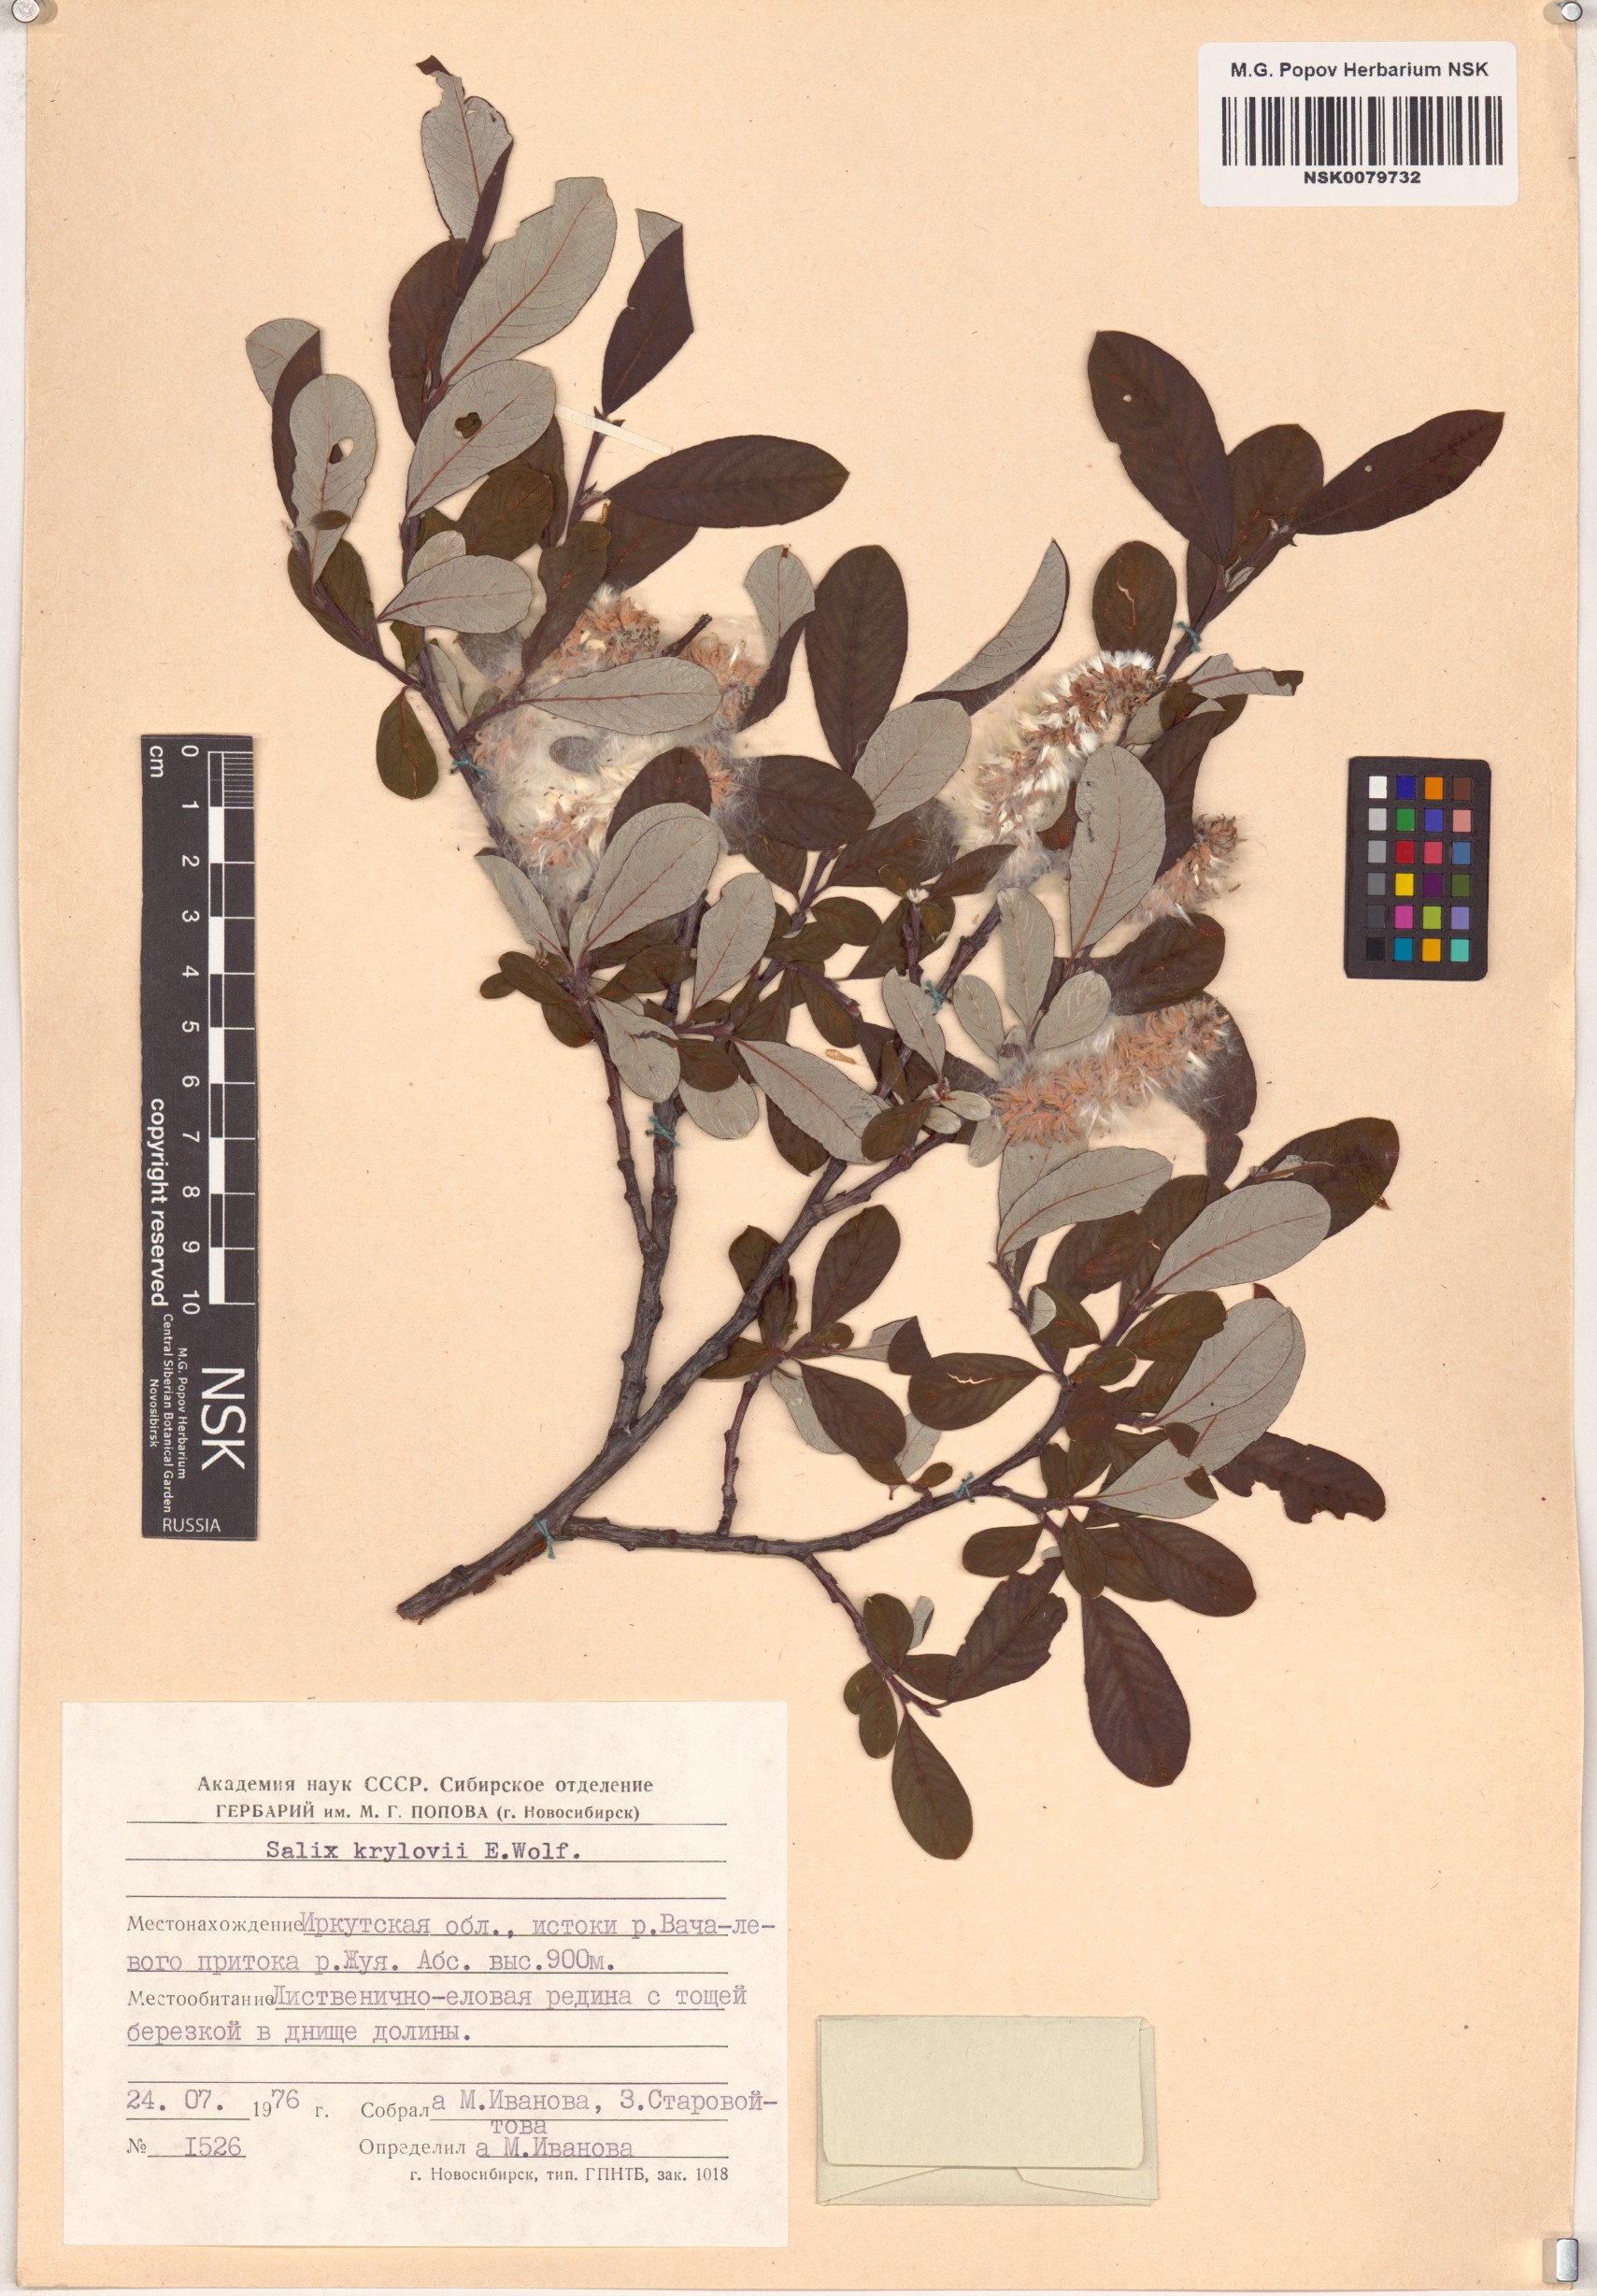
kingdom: Plantae
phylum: Tracheophyta
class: Magnoliopsida
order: Malpighiales
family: Salicaceae
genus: Salix
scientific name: Salix krylovii
